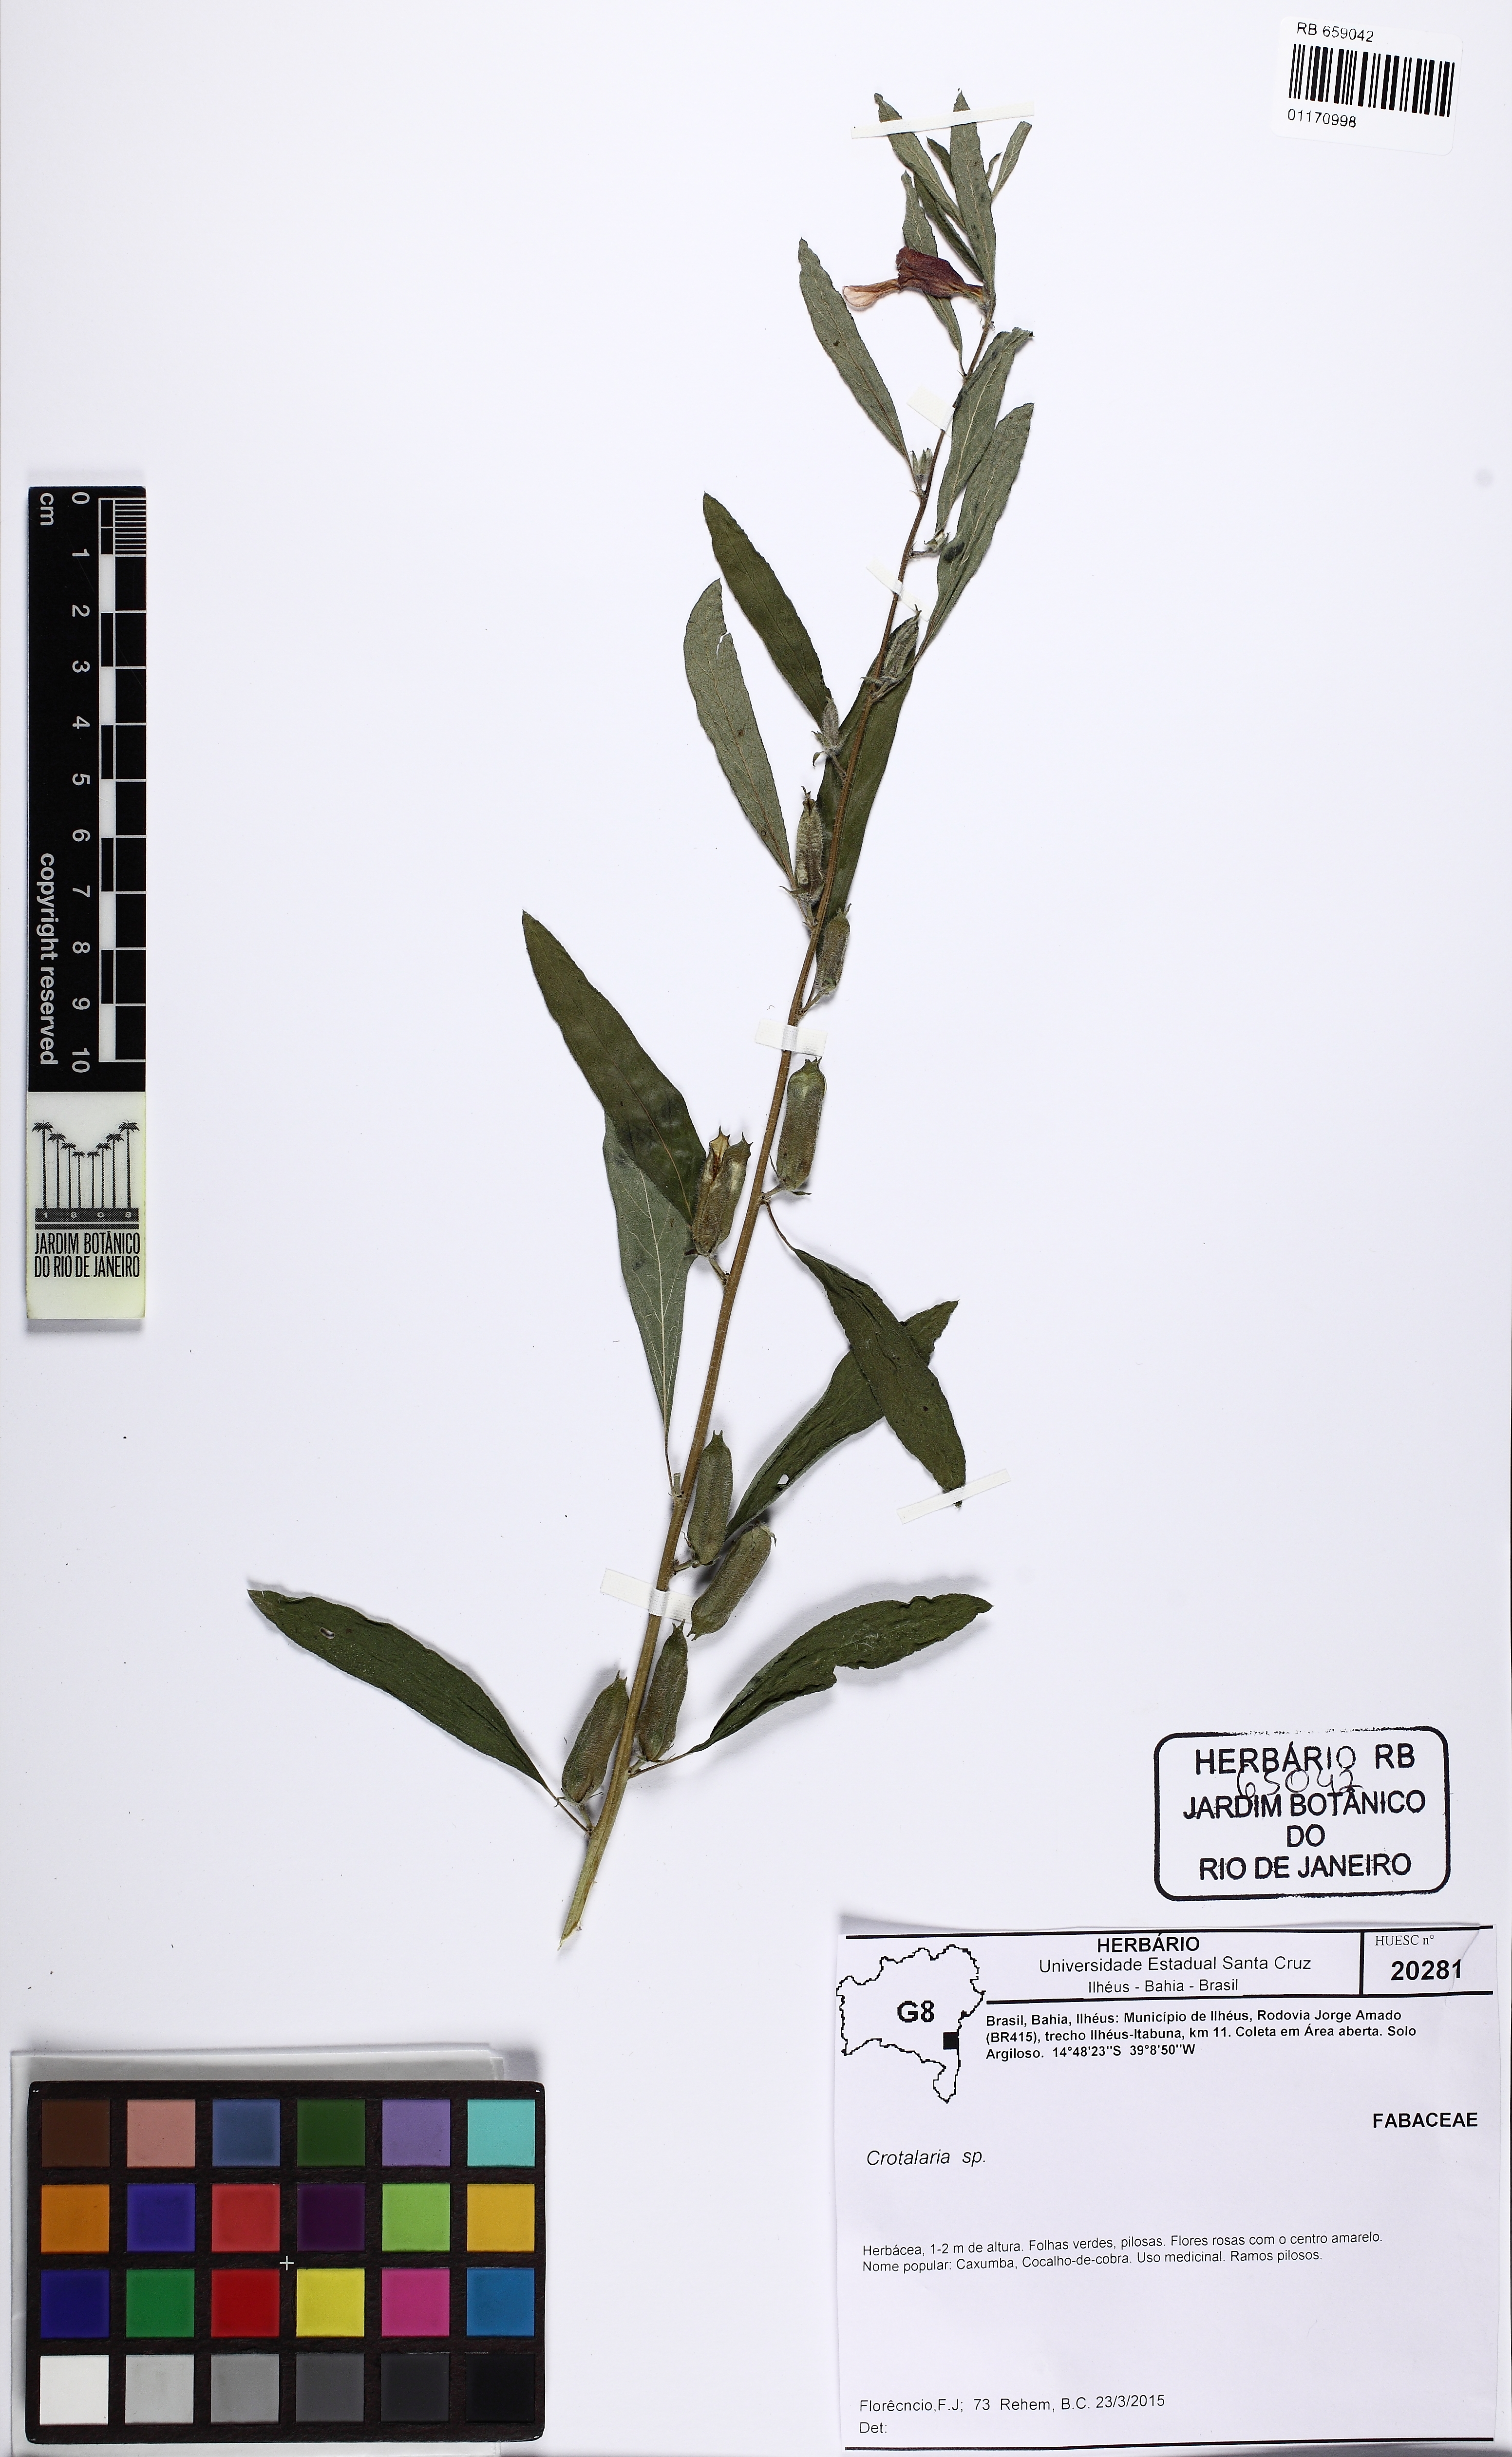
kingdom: Plantae
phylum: Tracheophyta
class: Magnoliopsida
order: Fabales
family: Fabaceae
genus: Crotalaria
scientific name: Crotalaria
